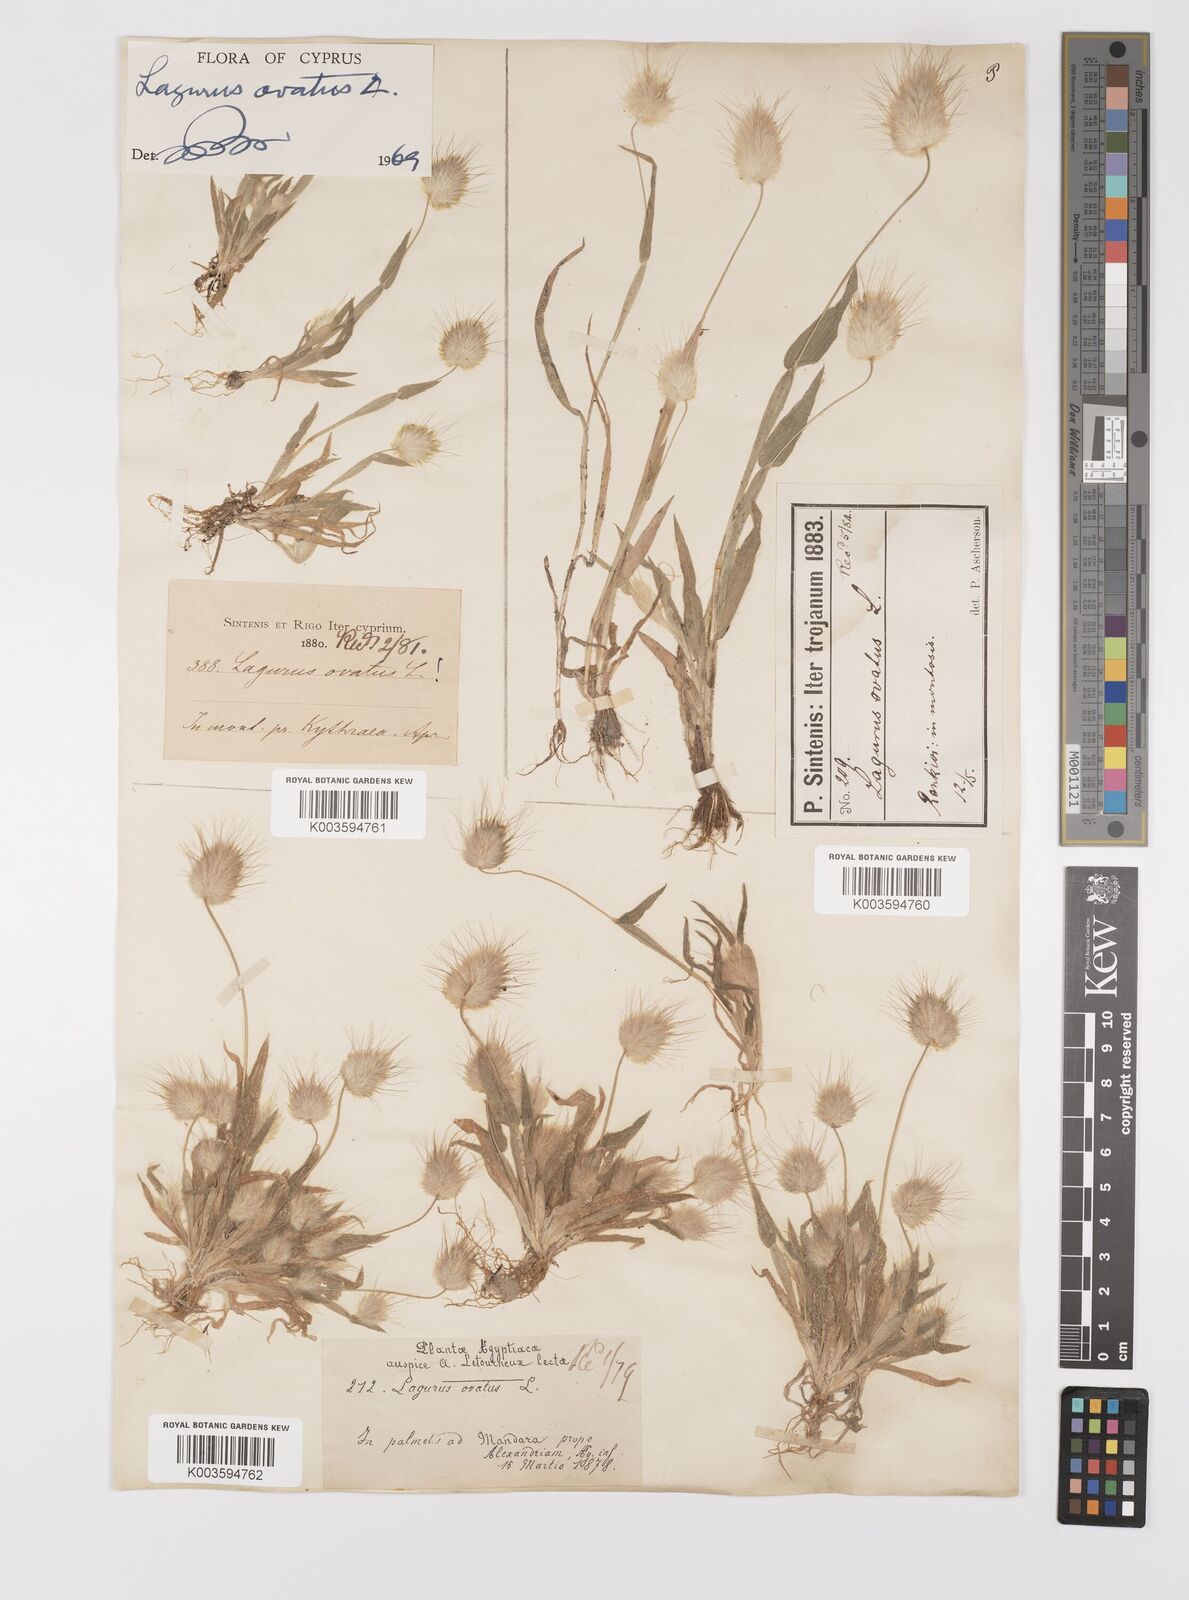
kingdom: Plantae
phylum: Tracheophyta
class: Liliopsida
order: Poales
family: Poaceae
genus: Lagurus
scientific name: Lagurus ovatus
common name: Hare's-tail
